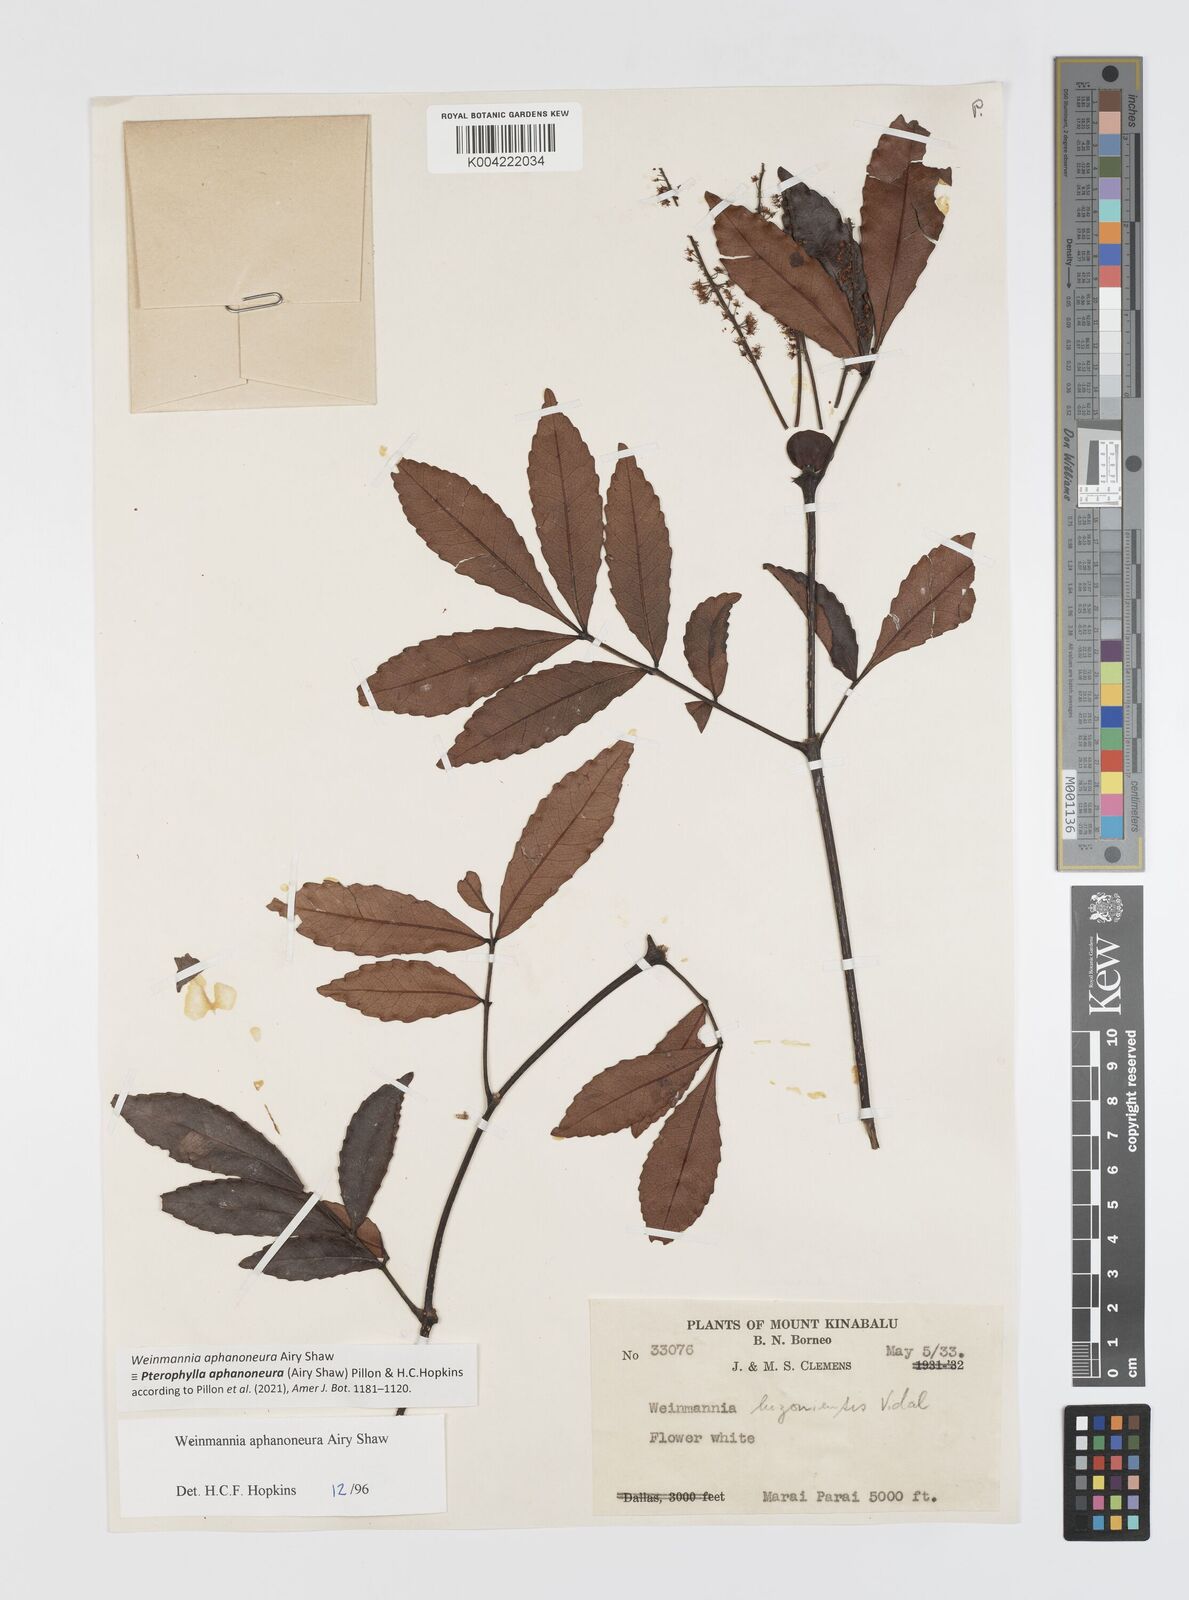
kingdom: Plantae
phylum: Tracheophyta
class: Magnoliopsida
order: Oxalidales
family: Cunoniaceae
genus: Pterophylla
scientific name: Pterophylla aphanoneura
